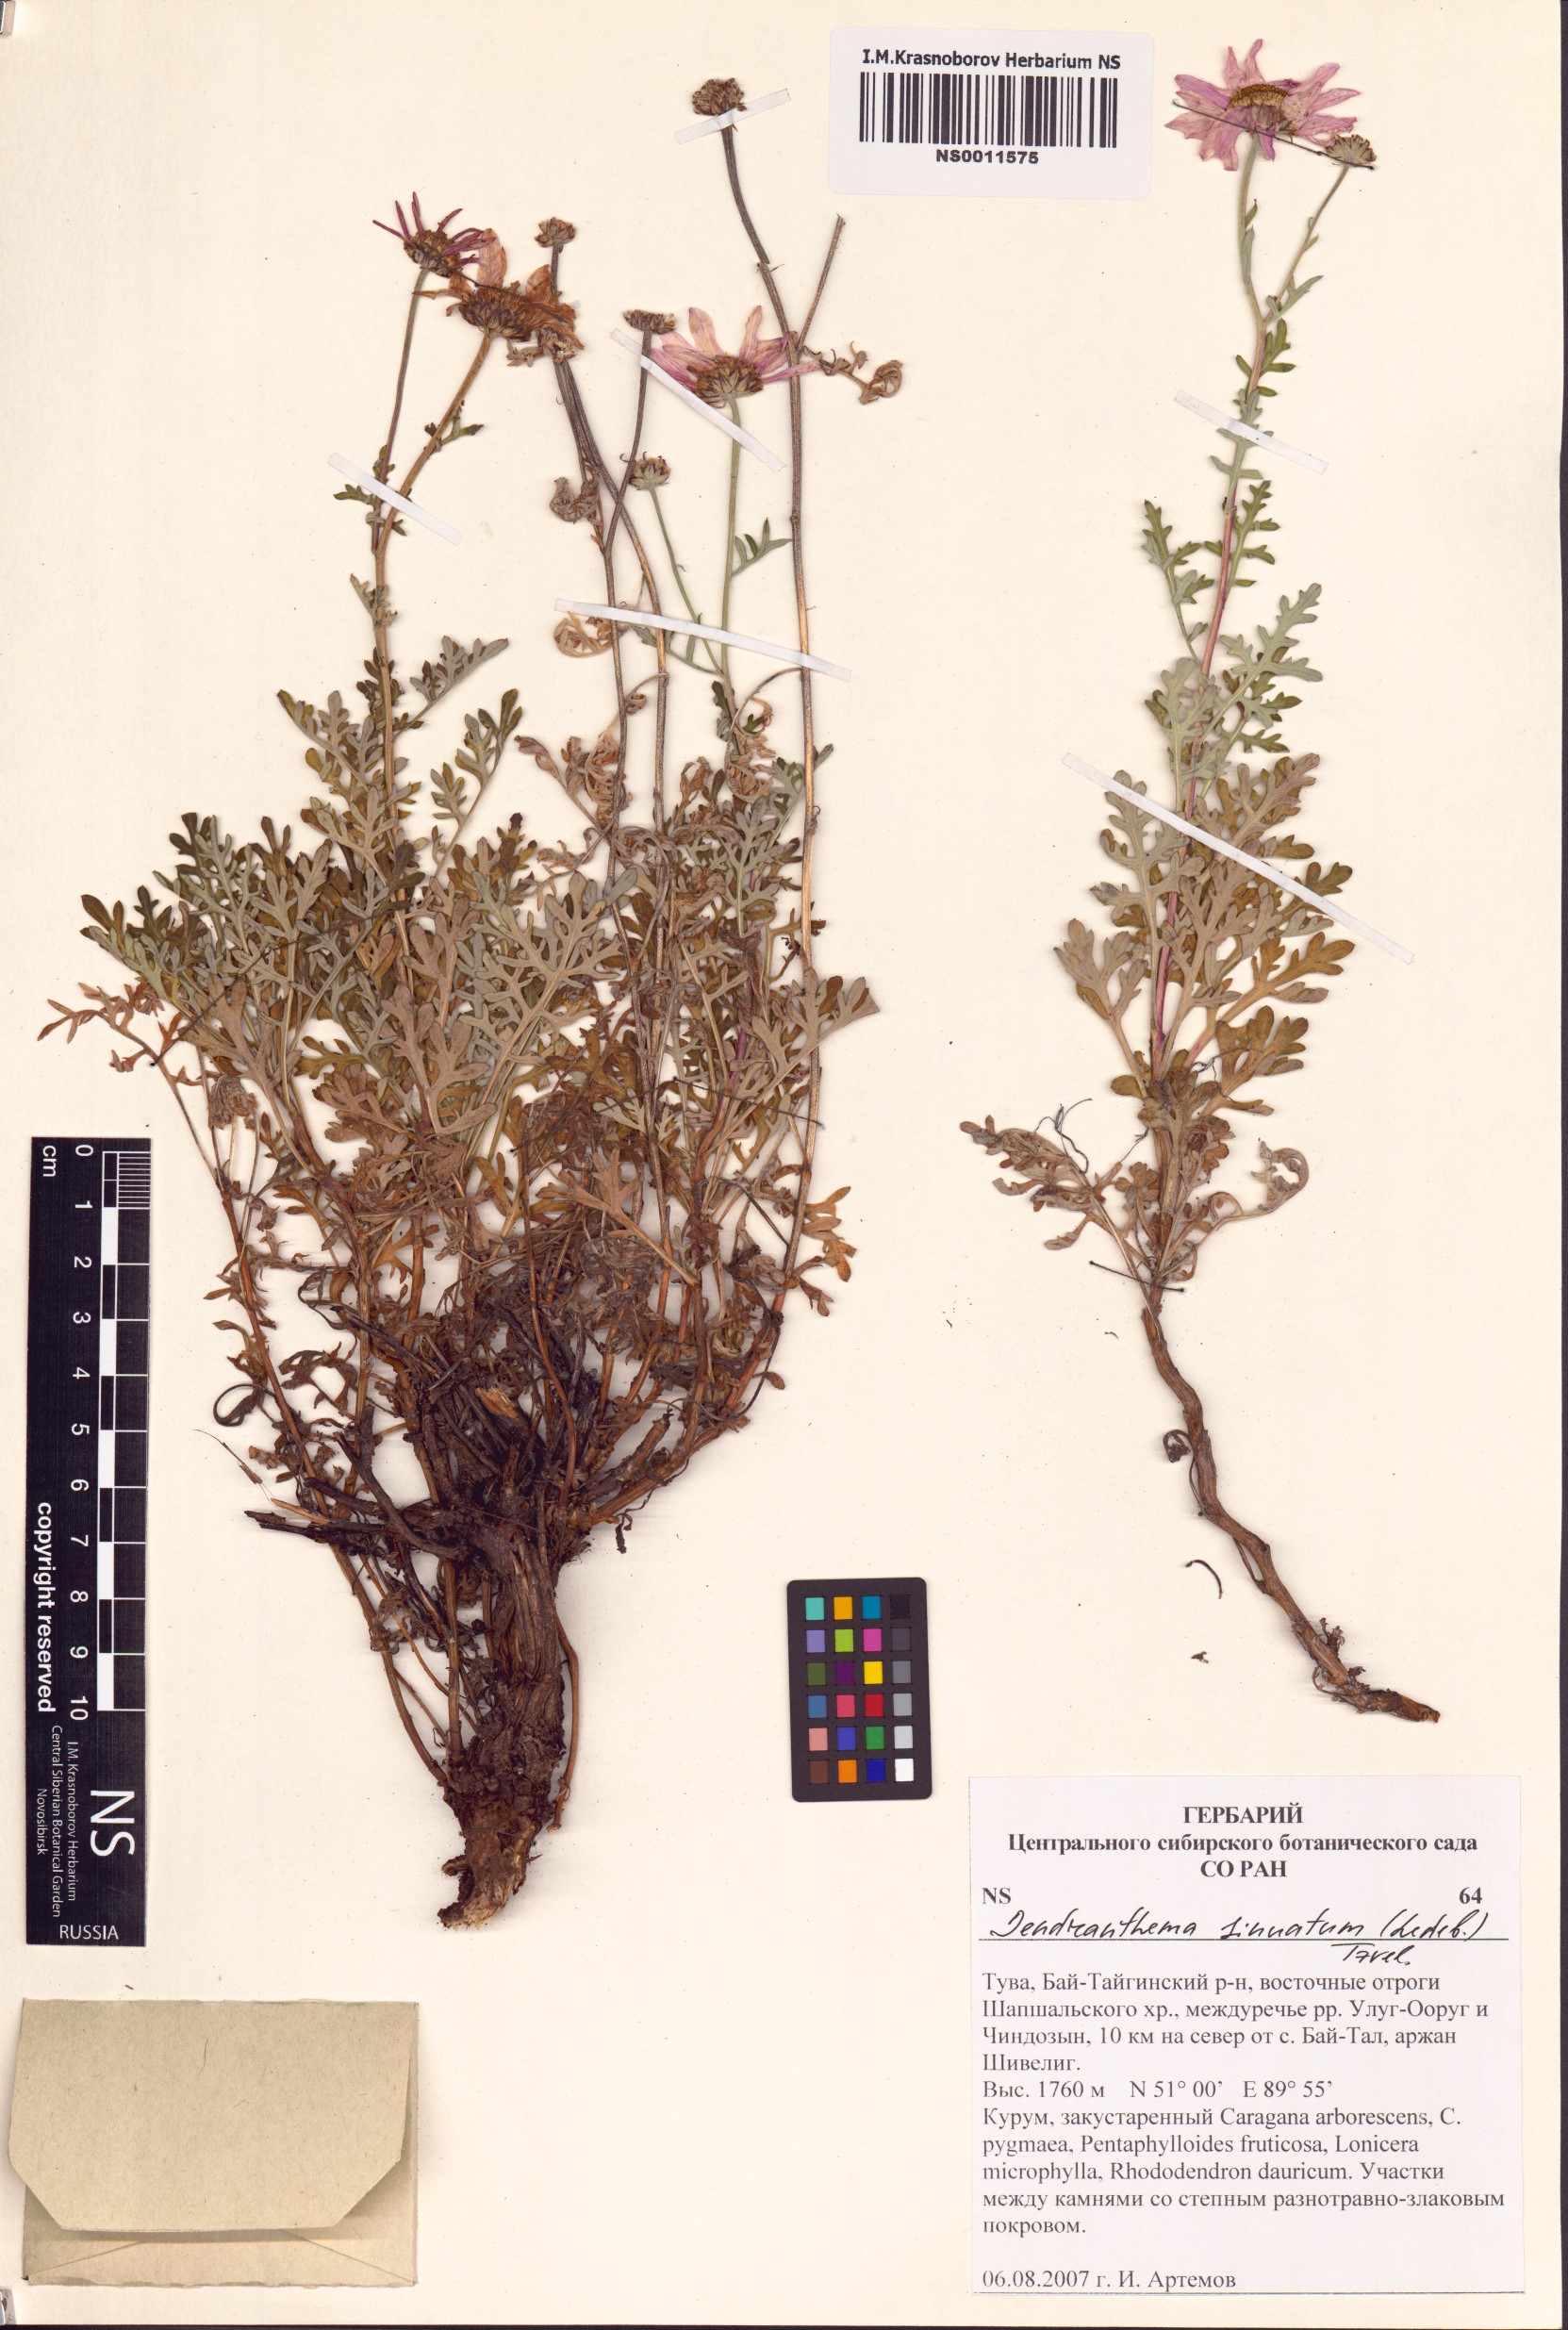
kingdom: Plantae
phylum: Tracheophyta
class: Magnoliopsida
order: Asterales
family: Asteraceae
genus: Chrysanthemum
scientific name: Chrysanthemum sinuatum
